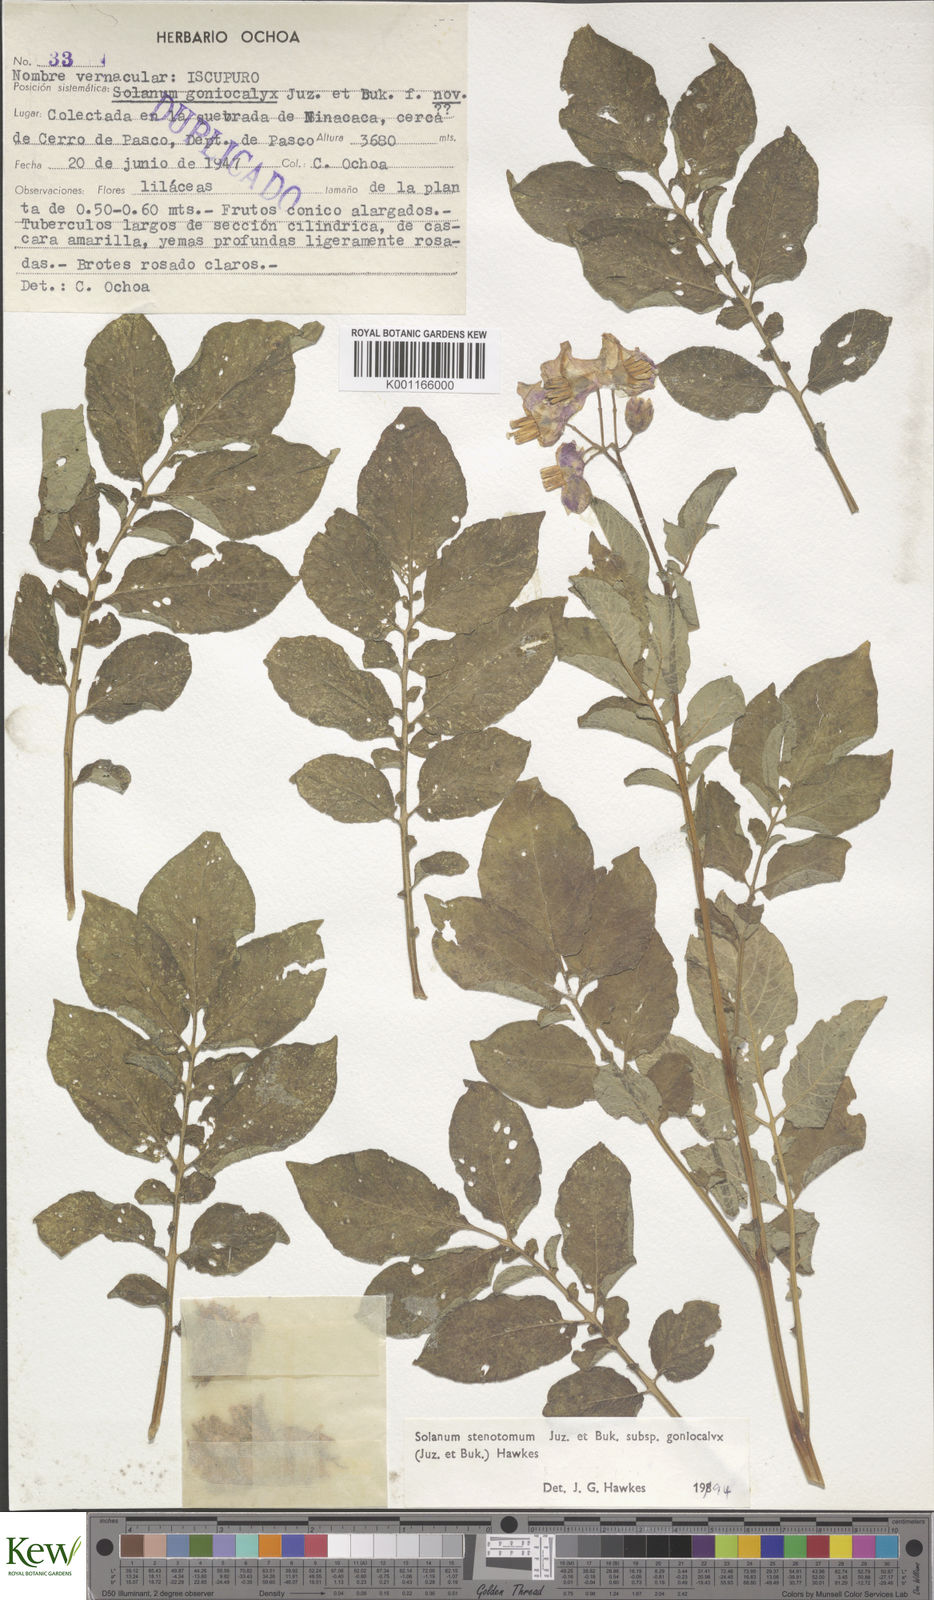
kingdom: Plantae
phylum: Tracheophyta
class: Magnoliopsida
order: Solanales
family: Solanaceae
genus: Solanum
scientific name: Solanum tuberosum
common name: Potato
